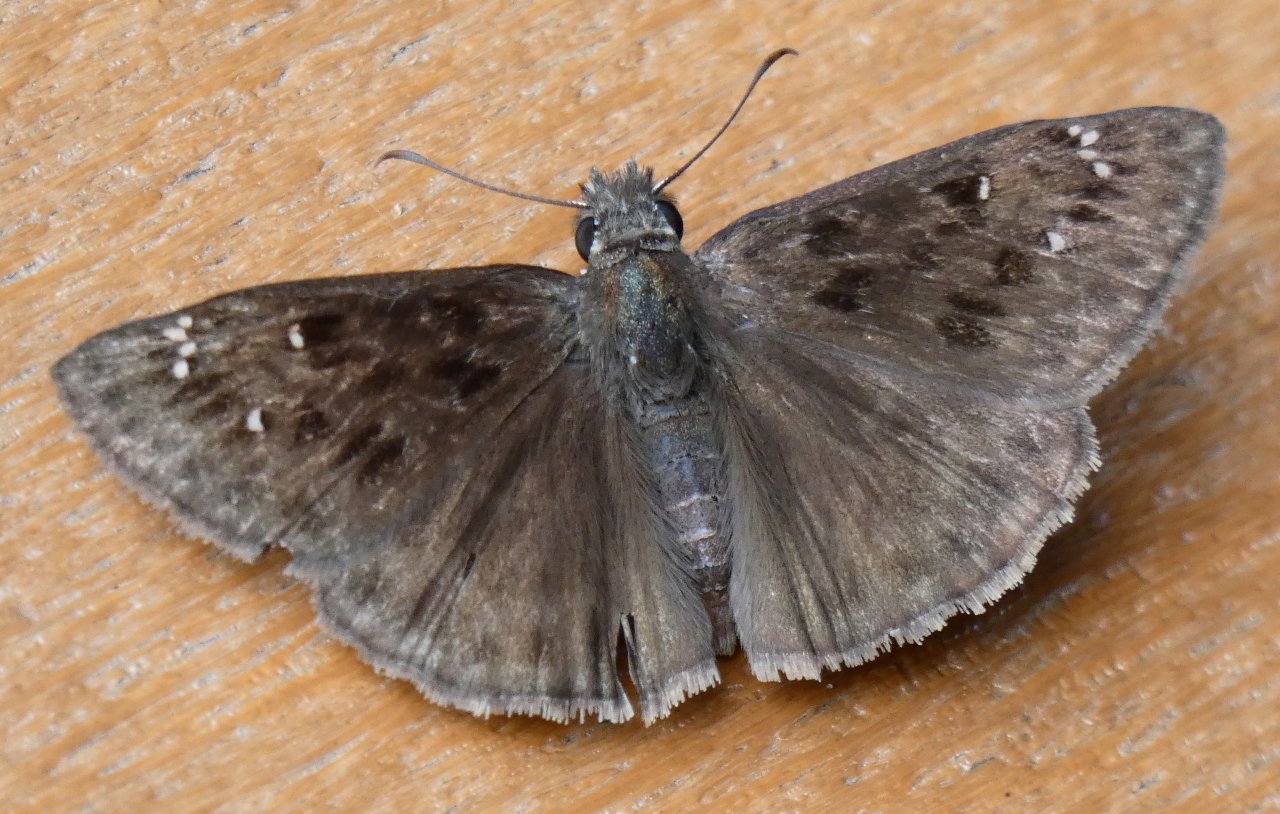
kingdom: Animalia
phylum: Arthropoda
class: Insecta
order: Lepidoptera
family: Hesperiidae
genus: Gesta
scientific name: Gesta
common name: Wild Indigo Duskywing
